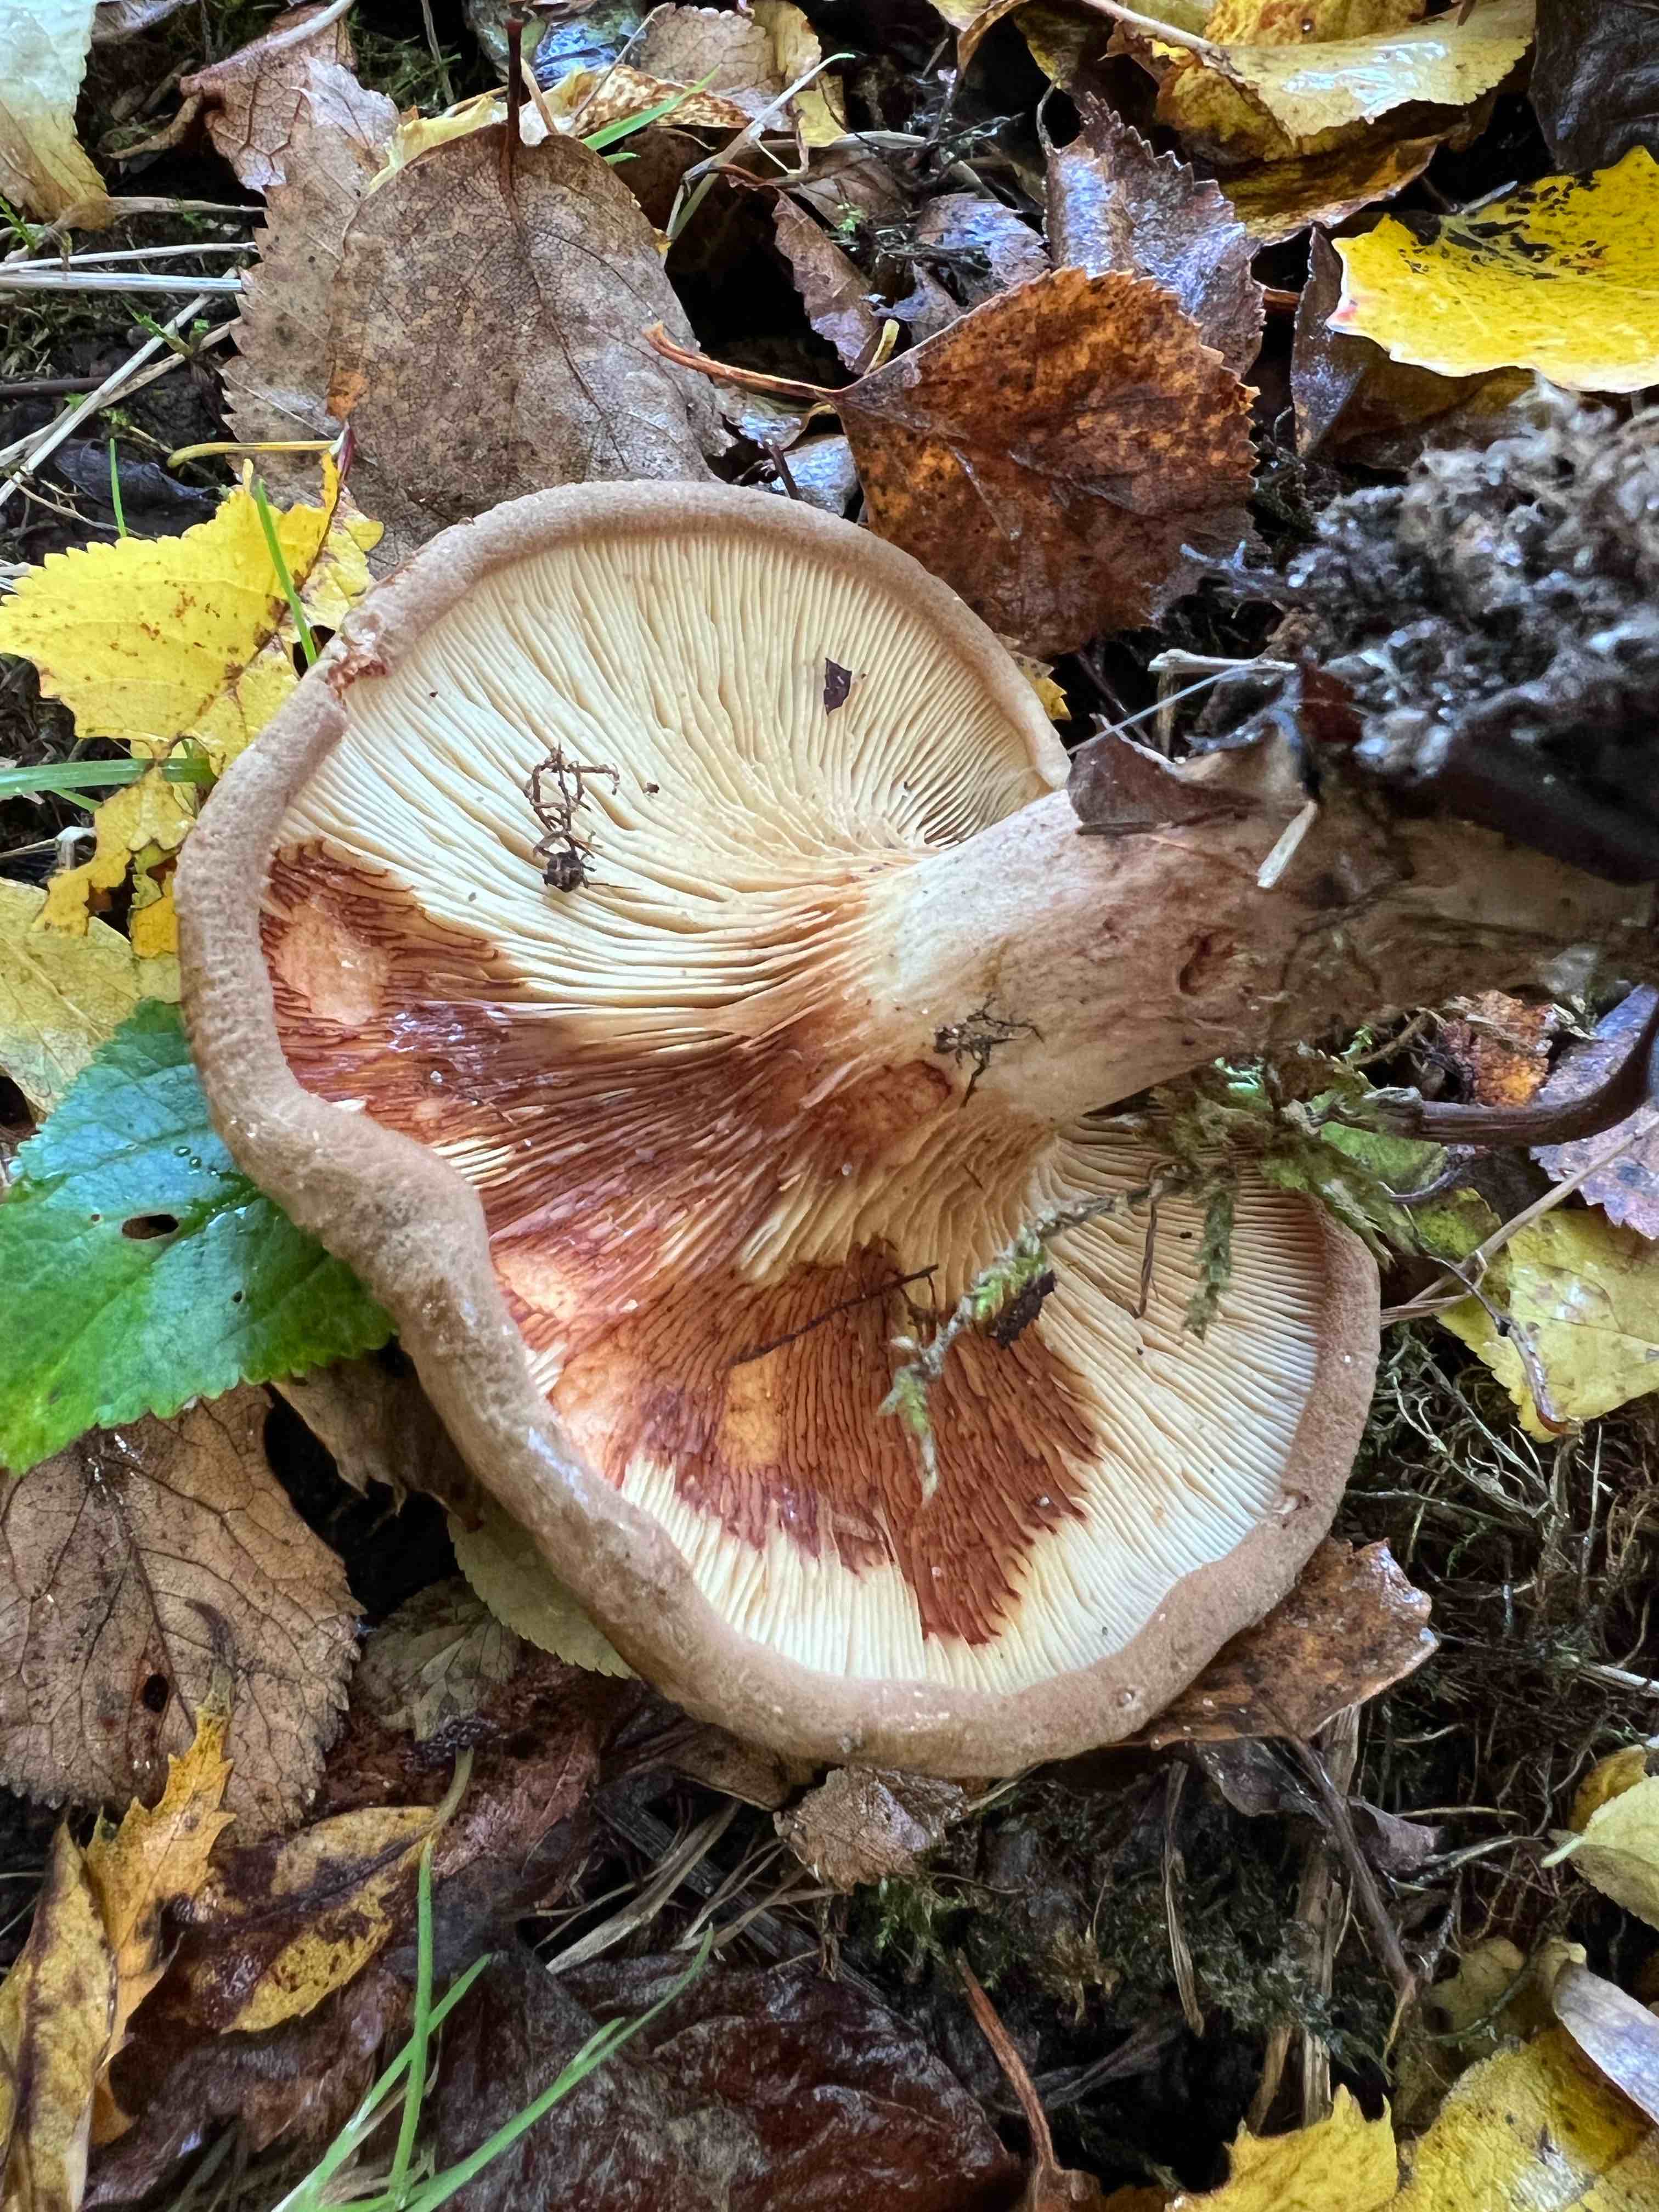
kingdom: Fungi
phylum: Basidiomycota
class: Agaricomycetes
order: Boletales
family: Paxillaceae
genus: Paxillus
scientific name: Paxillus involutus
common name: almindelig netbladhat
